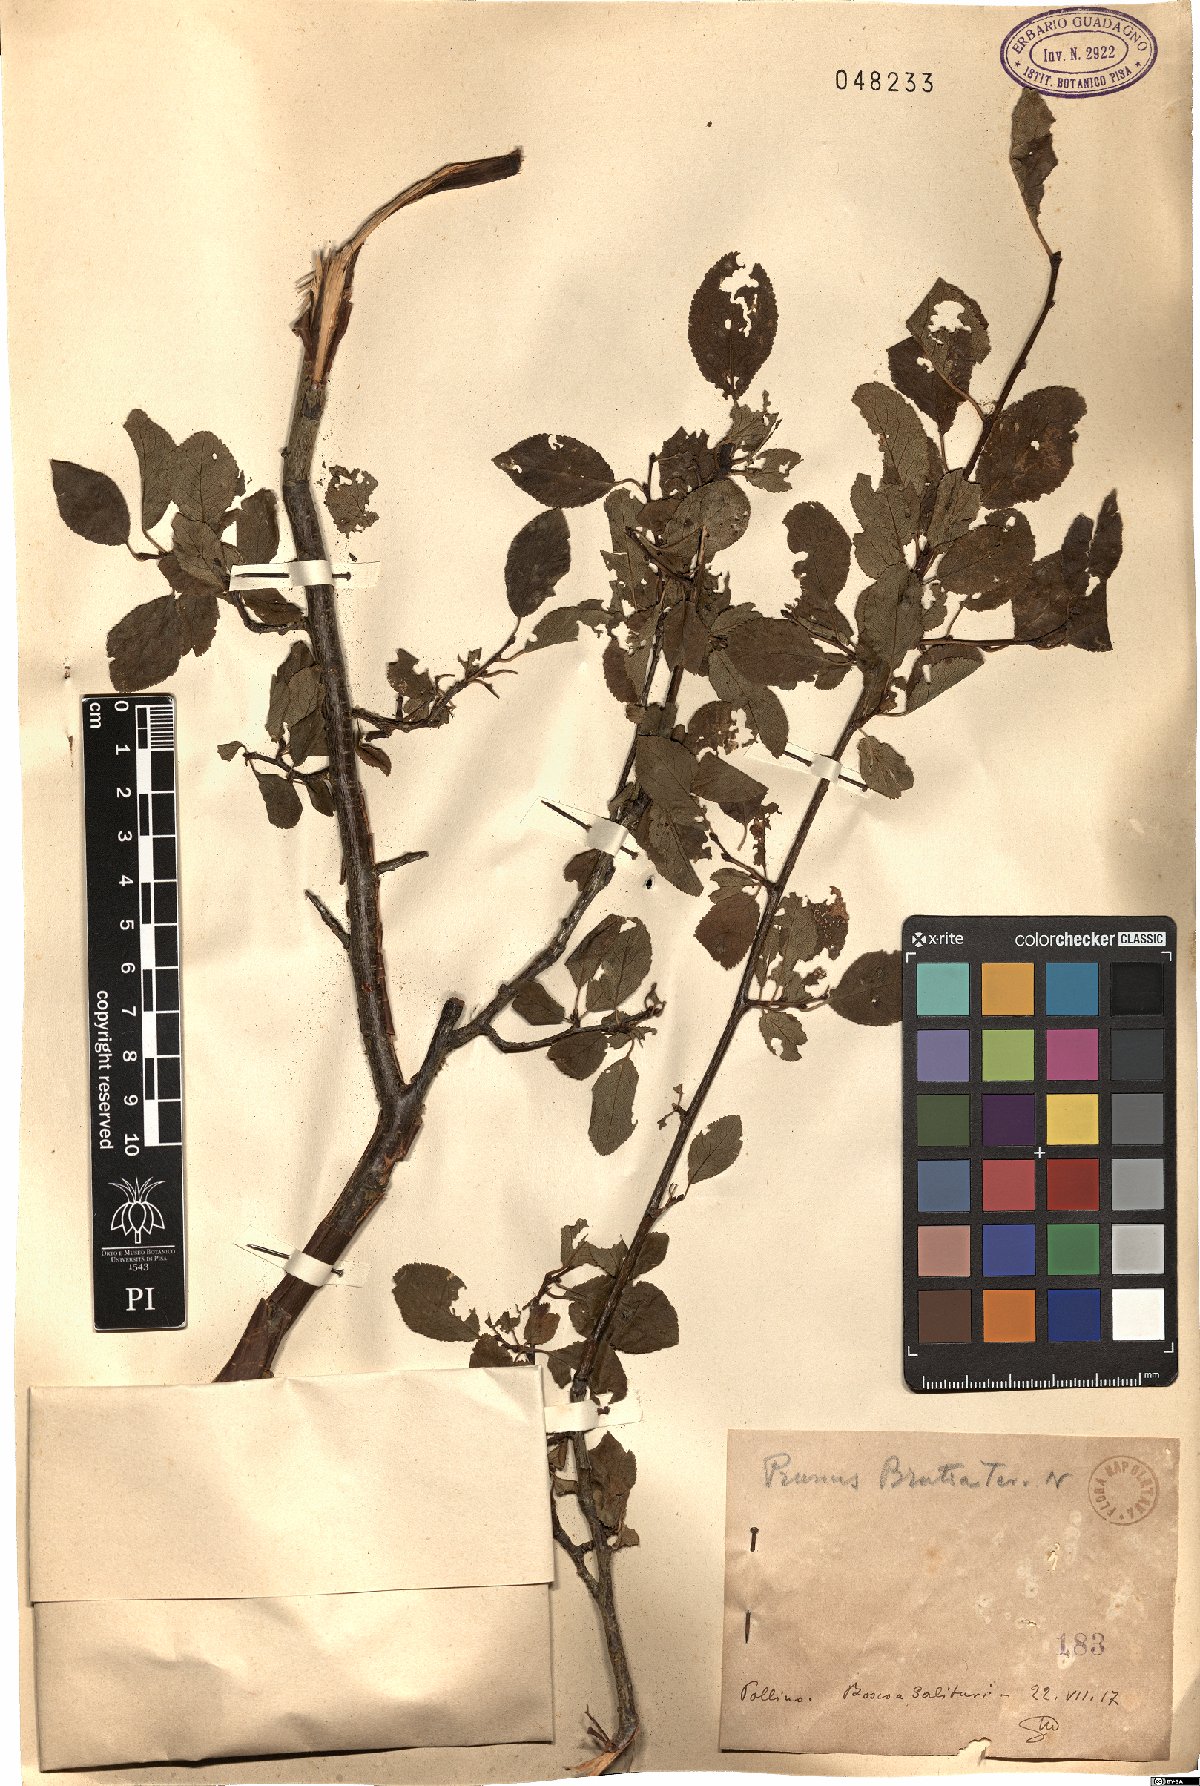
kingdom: Plantae
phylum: Tracheophyta
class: Magnoliopsida
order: Rosales
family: Rosaceae
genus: Prunus
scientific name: Prunus cocomilia
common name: Italian plum
